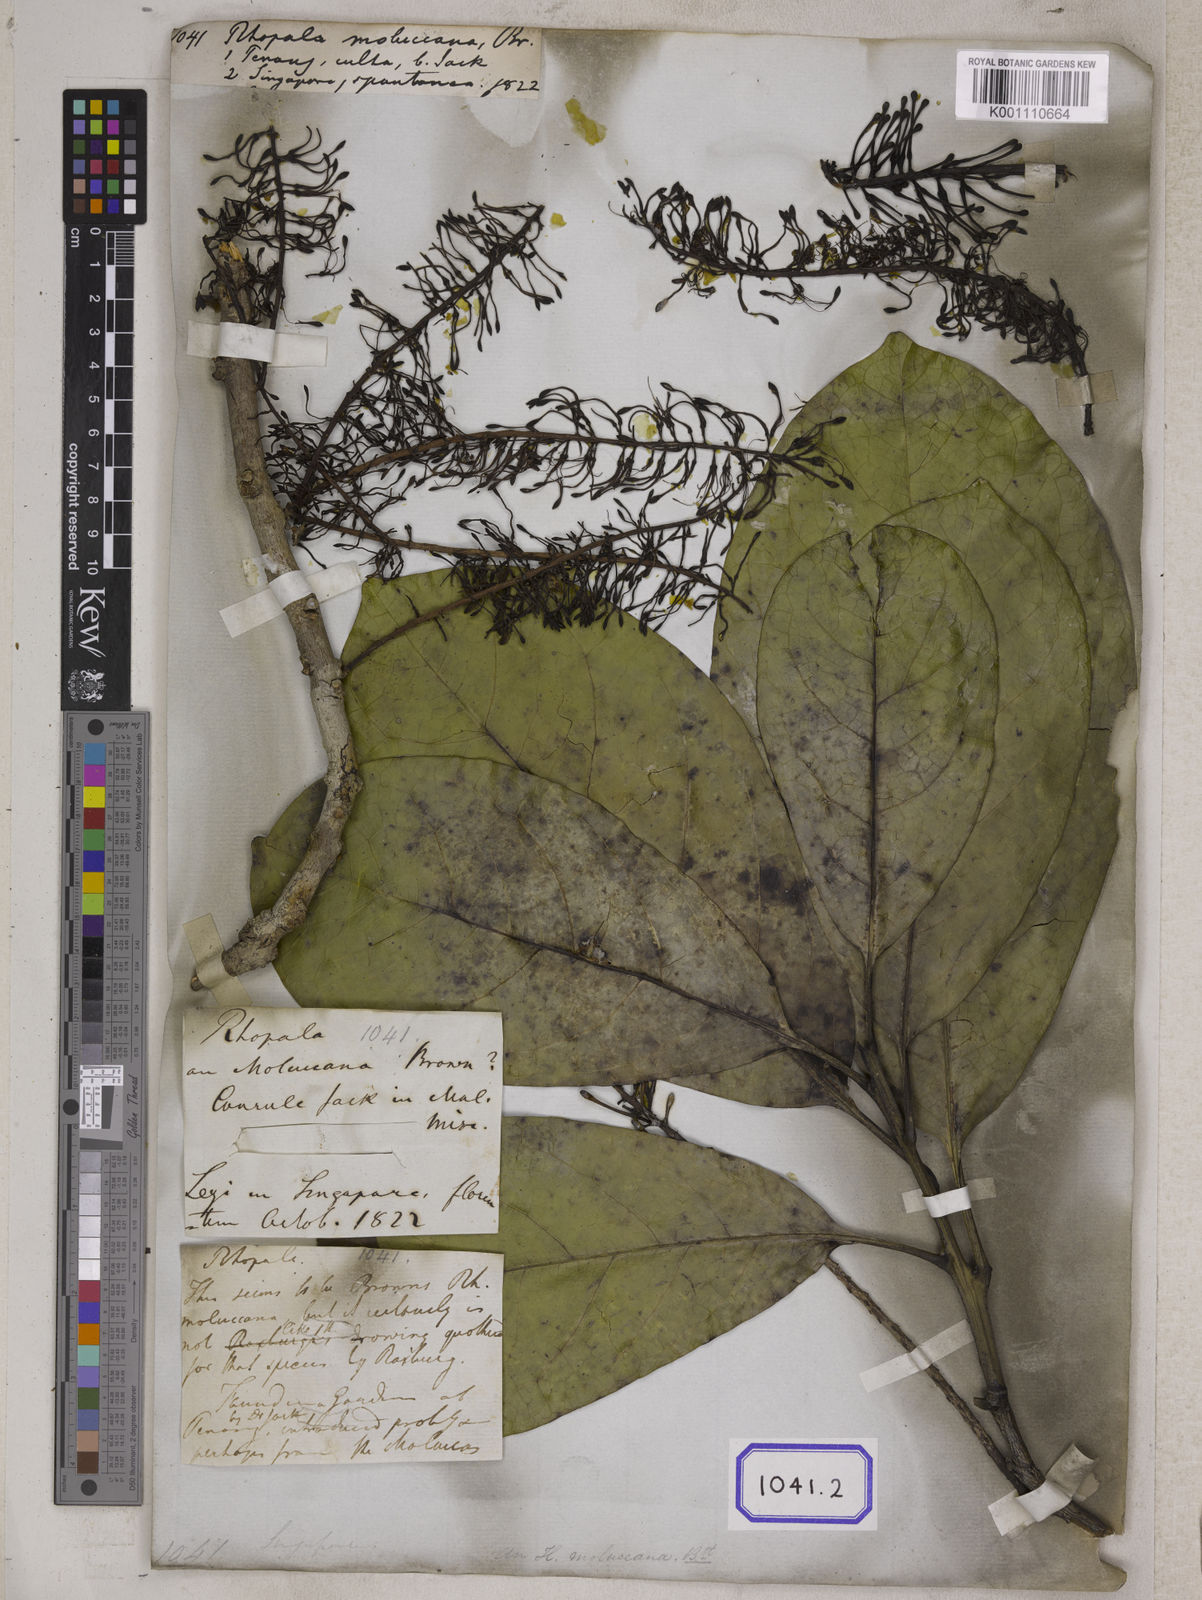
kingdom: Plantae
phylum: Tracheophyta
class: Magnoliopsida
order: Proteales
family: Proteaceae
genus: Helicia
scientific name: Helicia moluccana
